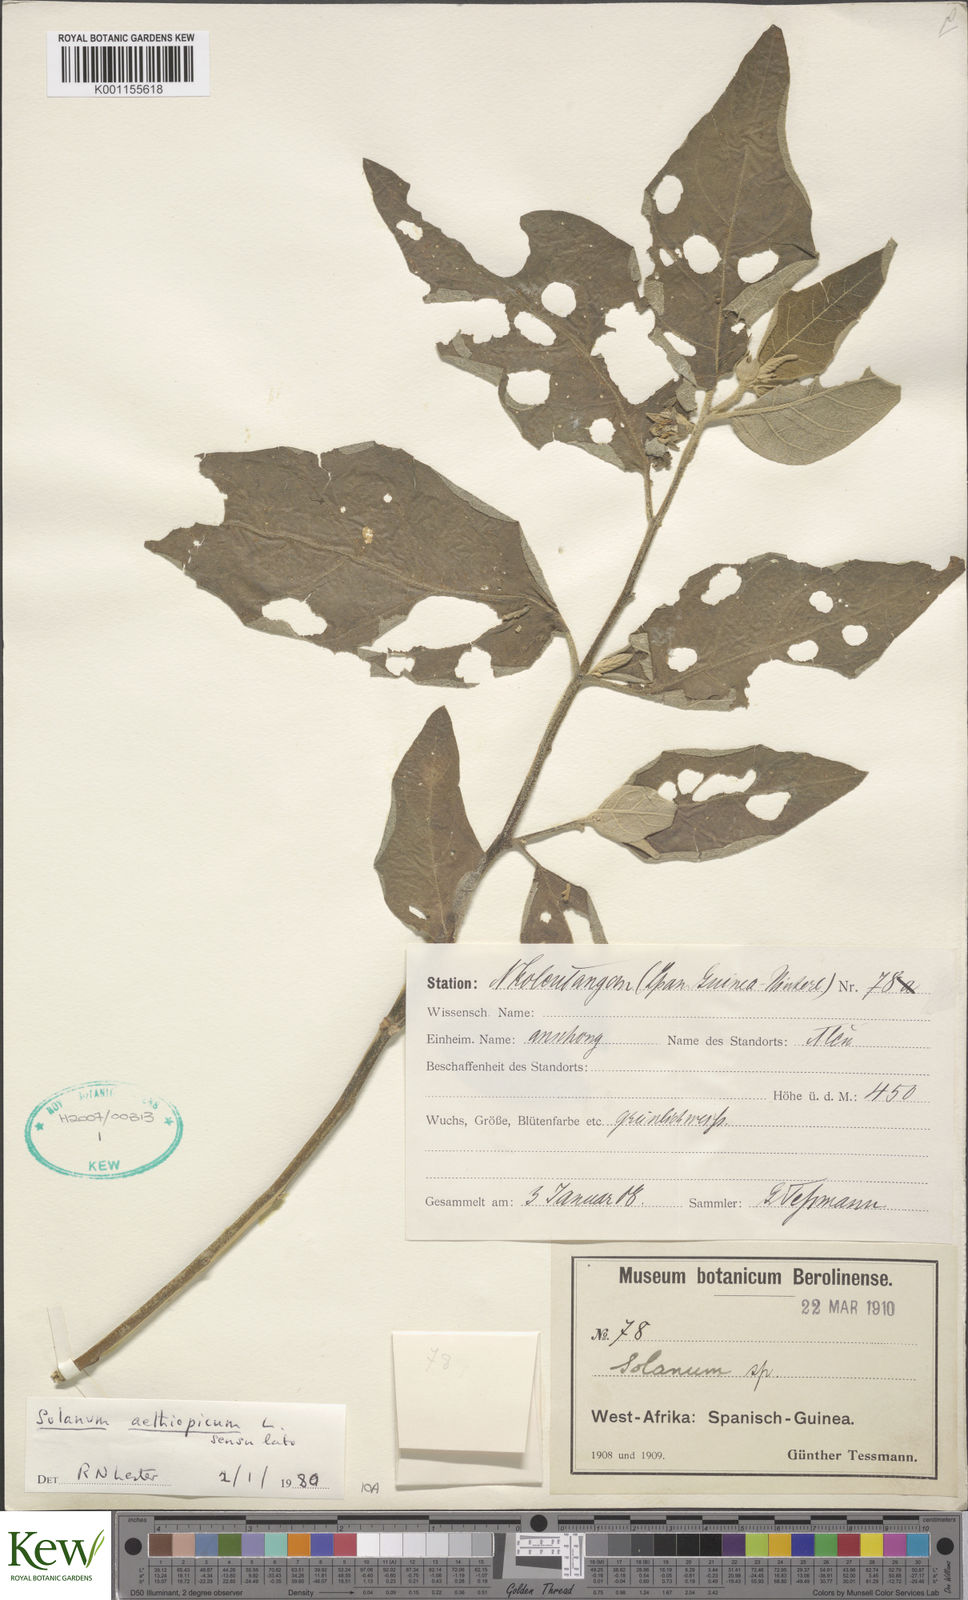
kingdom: Plantae
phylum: Tracheophyta
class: Magnoliopsida
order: Solanales
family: Solanaceae
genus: Solanum
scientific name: Solanum aethiopicum
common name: Gilo
